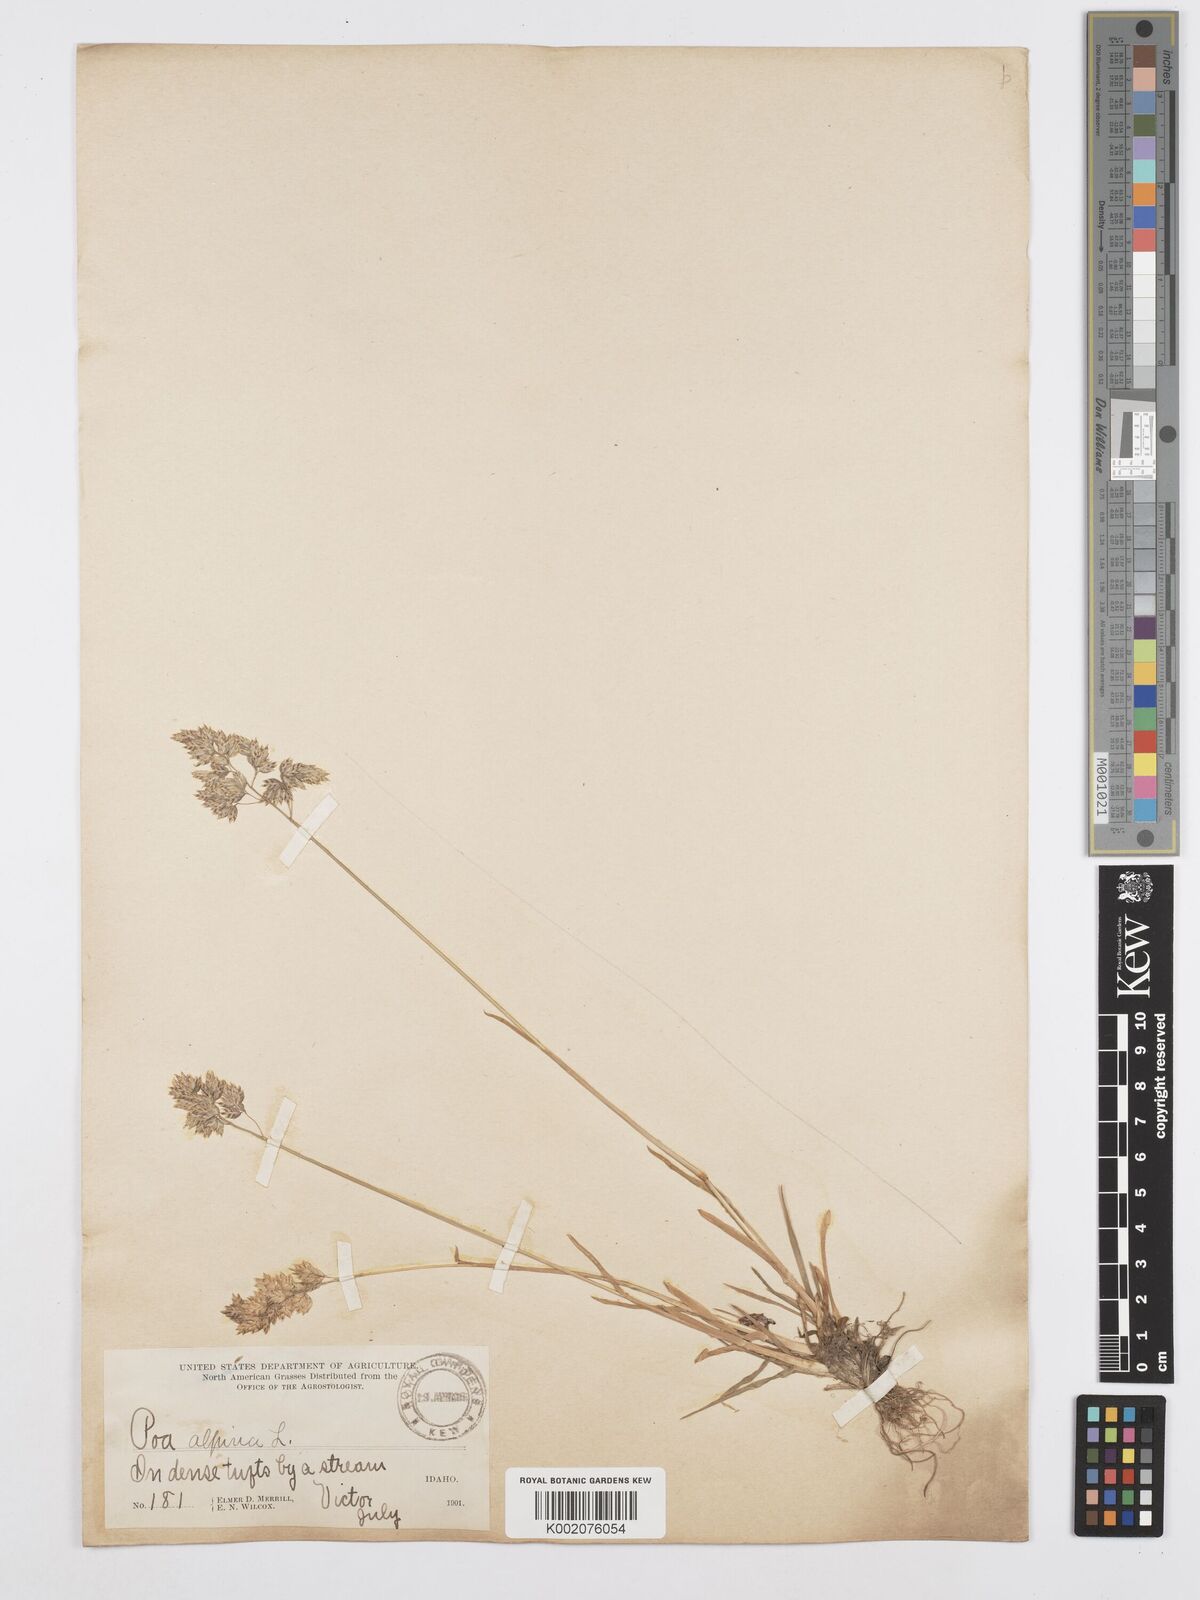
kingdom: Plantae
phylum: Tracheophyta
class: Liliopsida
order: Poales
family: Poaceae
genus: Poa
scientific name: Poa alpina
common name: Alpine bluegrass
